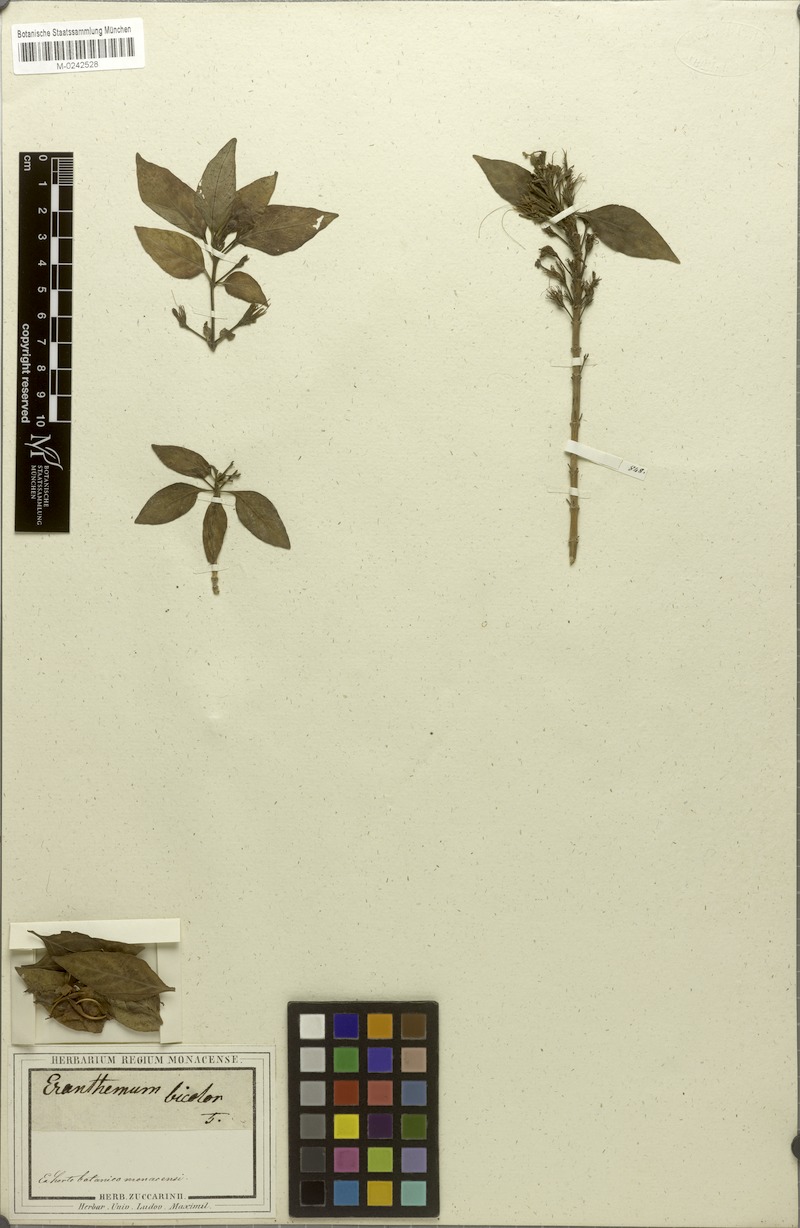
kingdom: Plantae
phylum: Tracheophyta
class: Magnoliopsida
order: Lamiales
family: Acanthaceae
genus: Eranthemum
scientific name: Eranthemum pulchellum
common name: Blue-sage
